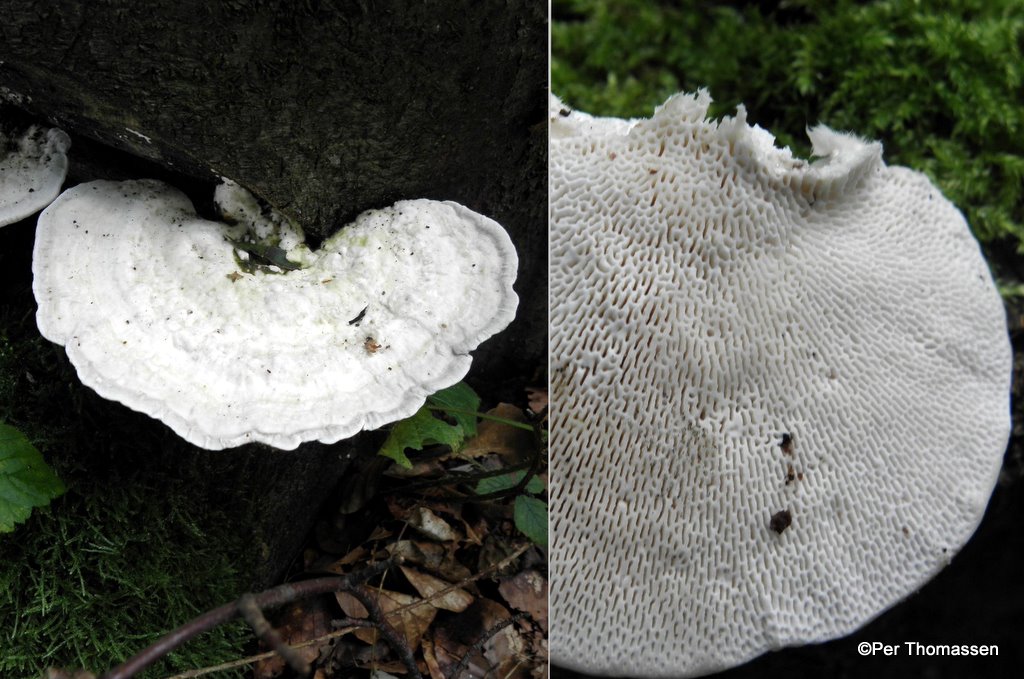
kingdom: Fungi
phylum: Basidiomycota
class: Agaricomycetes
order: Polyporales
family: Polyporaceae
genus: Trametes
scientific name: Trametes gibbosa
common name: puklet læderporesvamp
